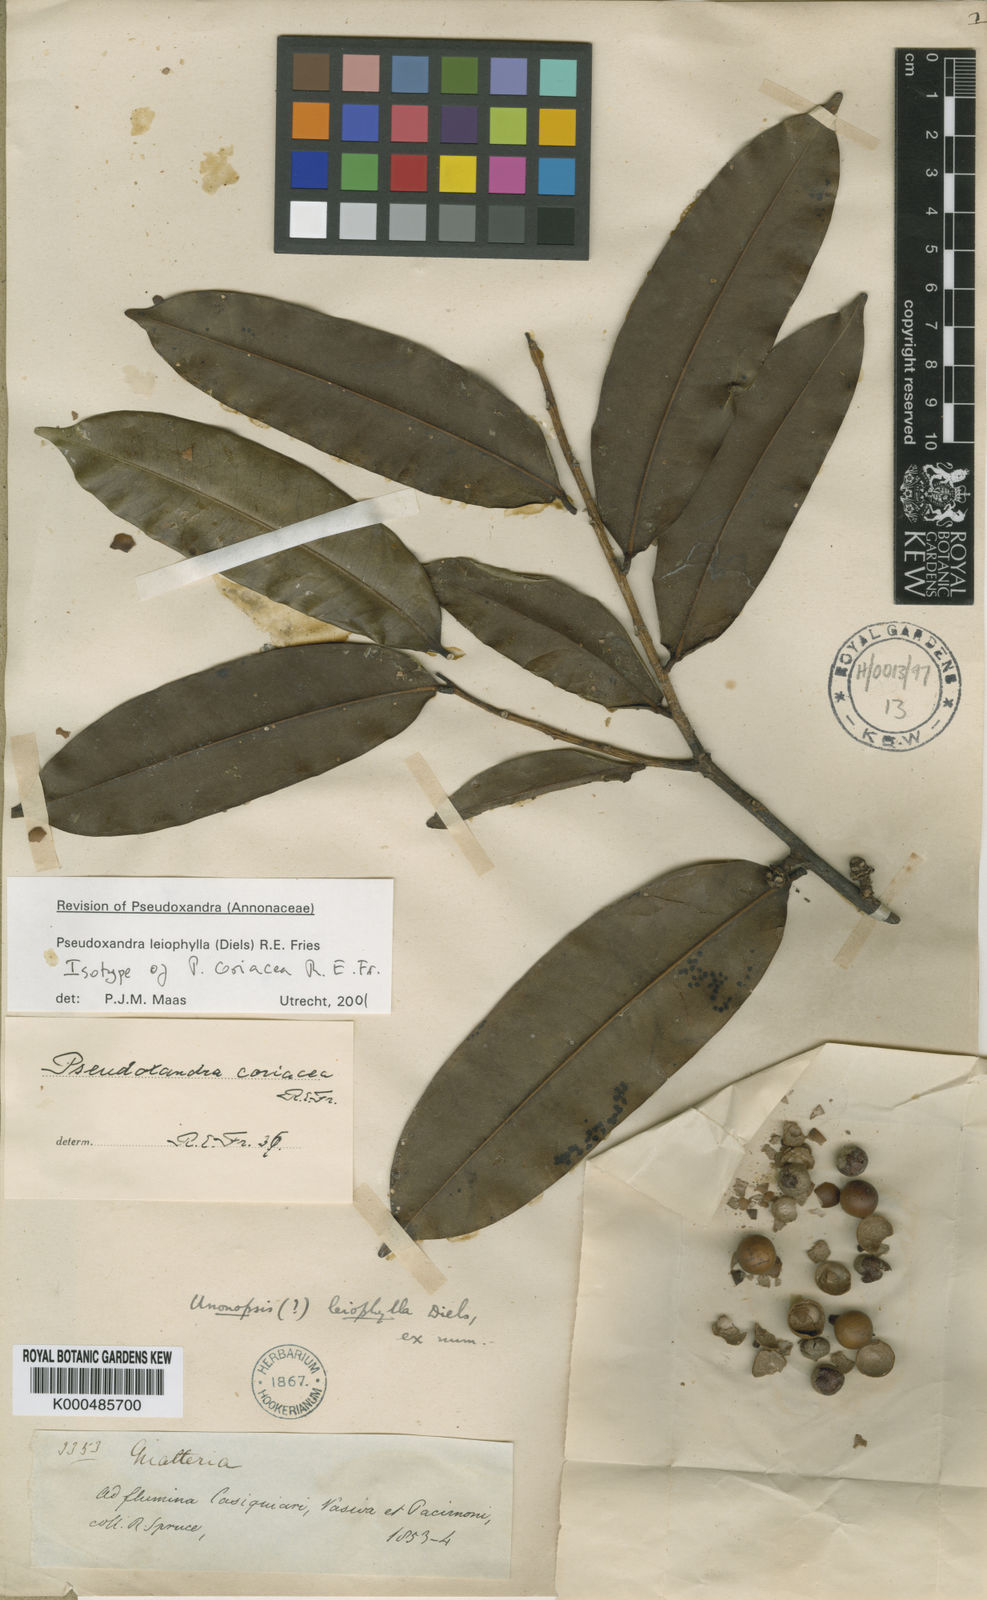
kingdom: Plantae
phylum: Tracheophyta
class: Magnoliopsida
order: Magnoliales
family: Annonaceae
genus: Pseudoxandra
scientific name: Pseudoxandra leiophylla
